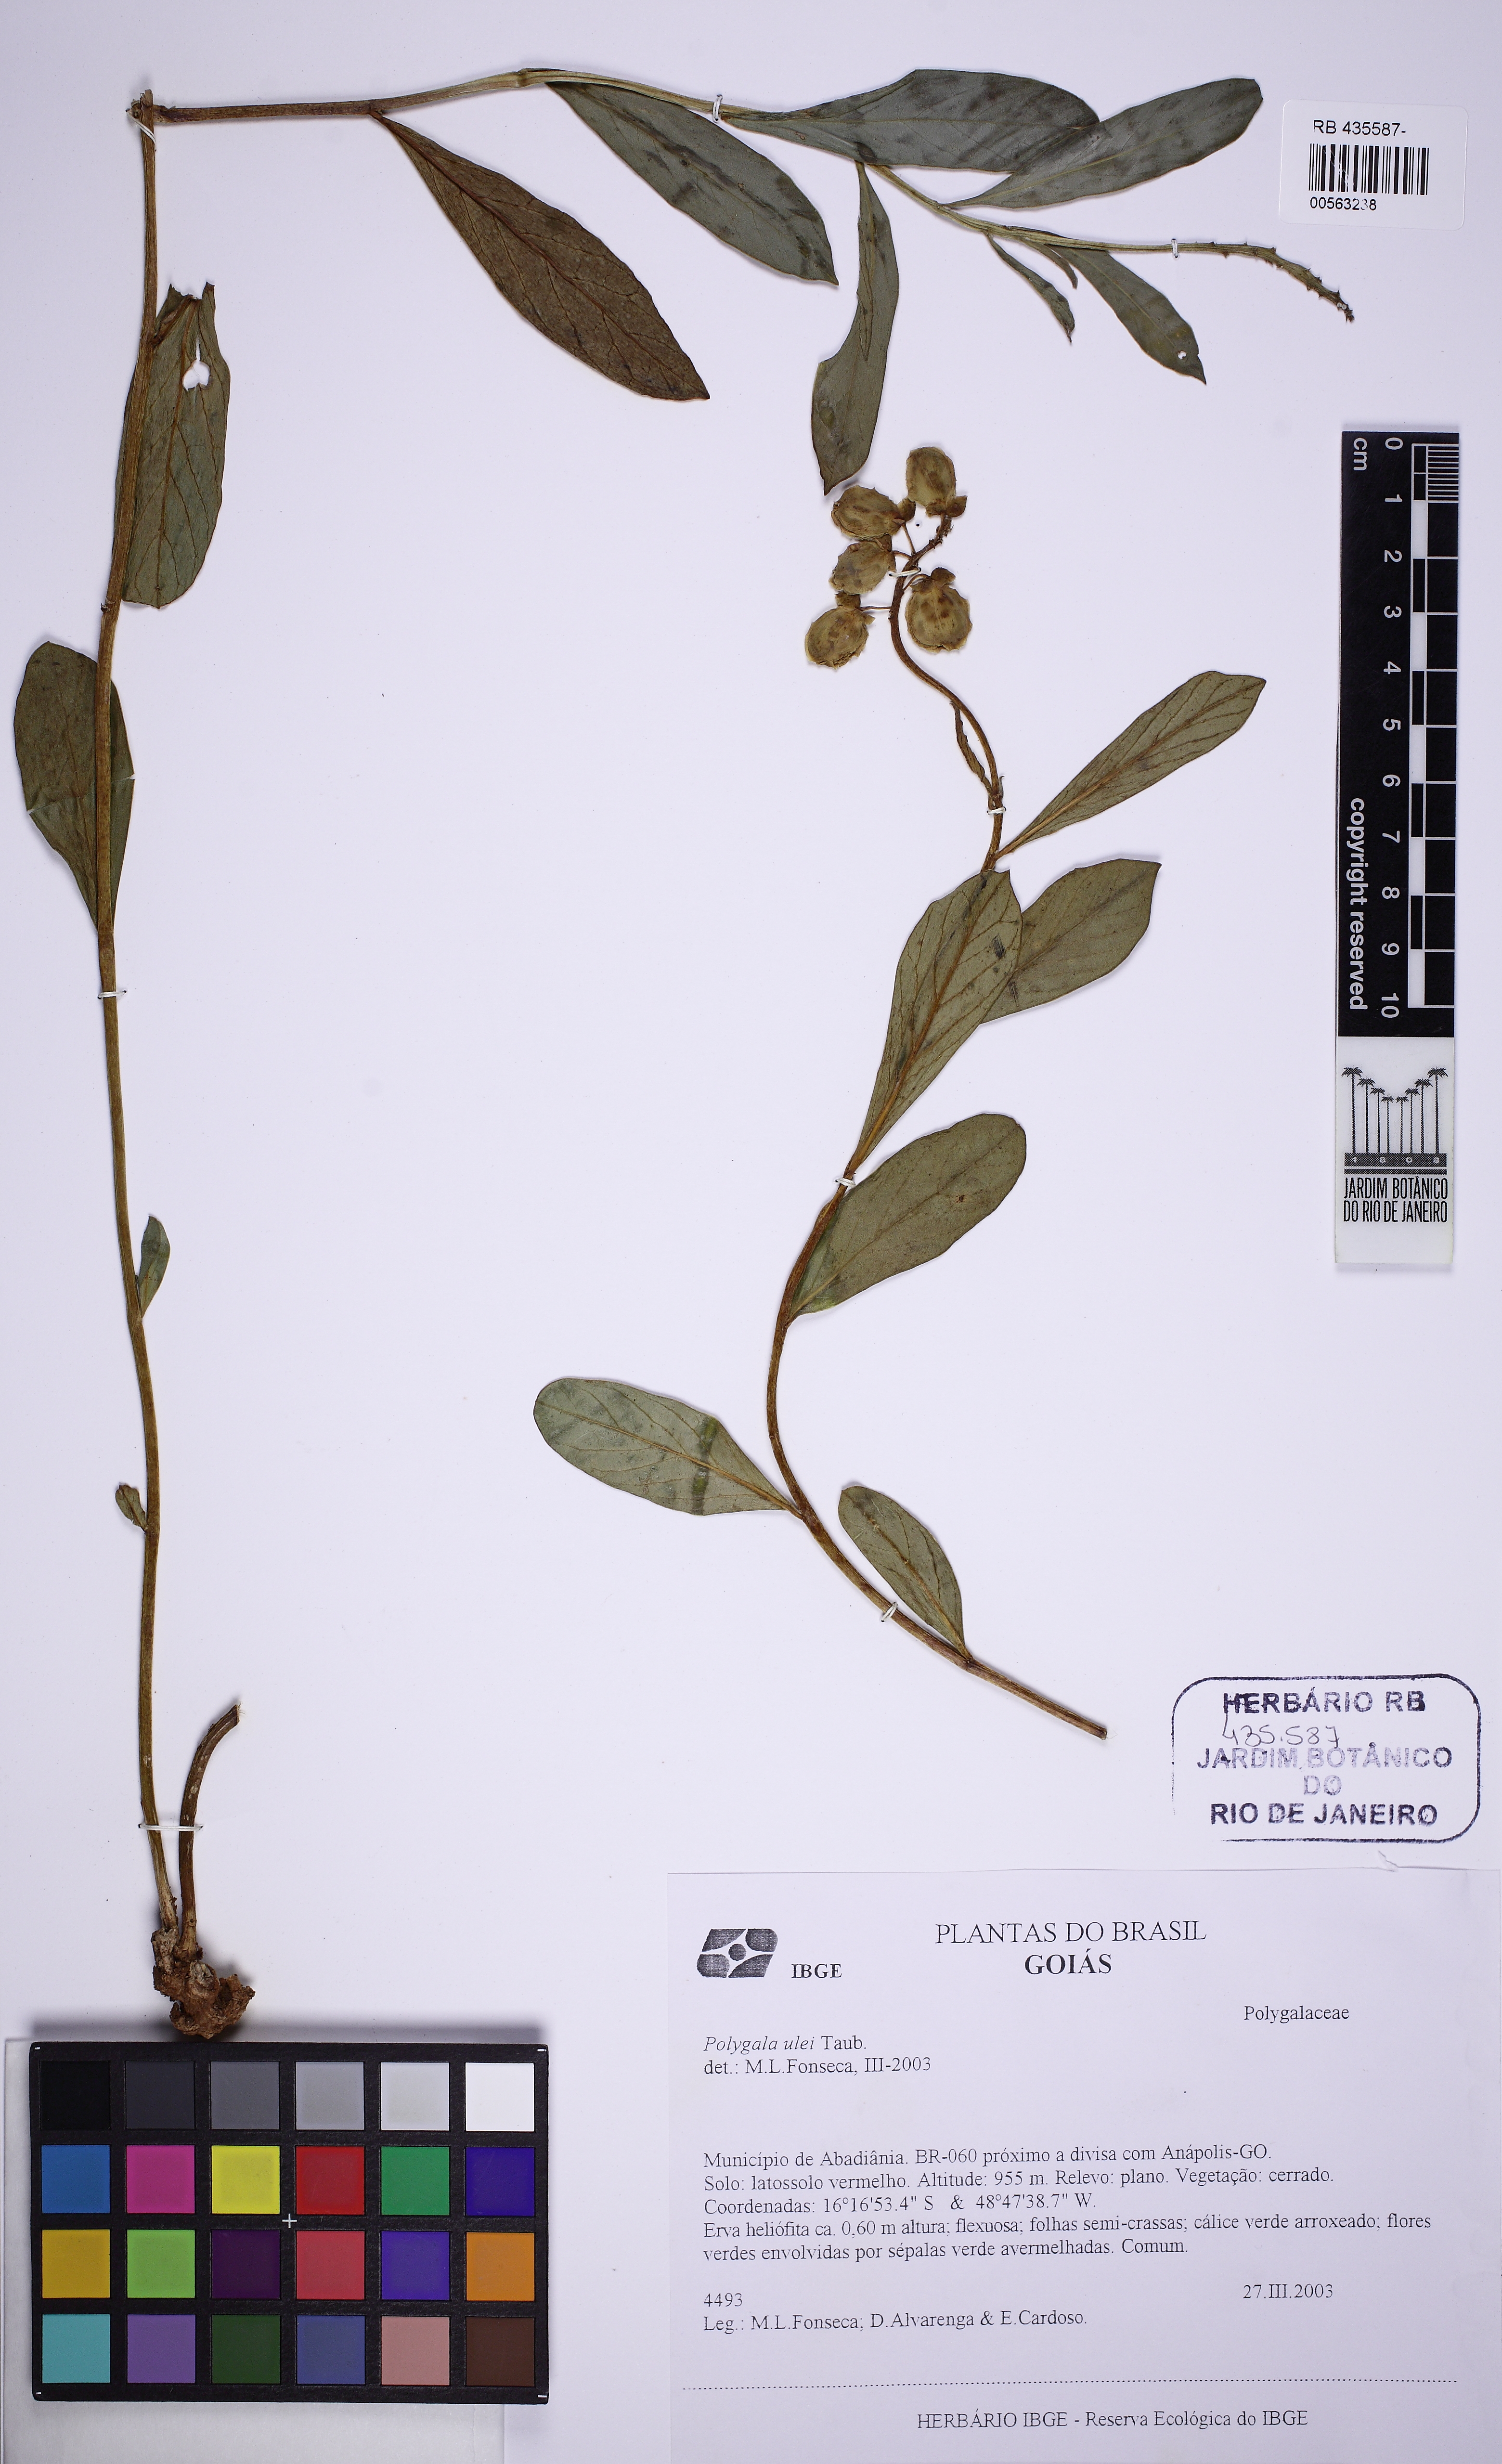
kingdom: Plantae
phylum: Tracheophyta
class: Magnoliopsida
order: Fabales
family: Polygalaceae
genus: Caamembeca
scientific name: Caamembeca ulei
